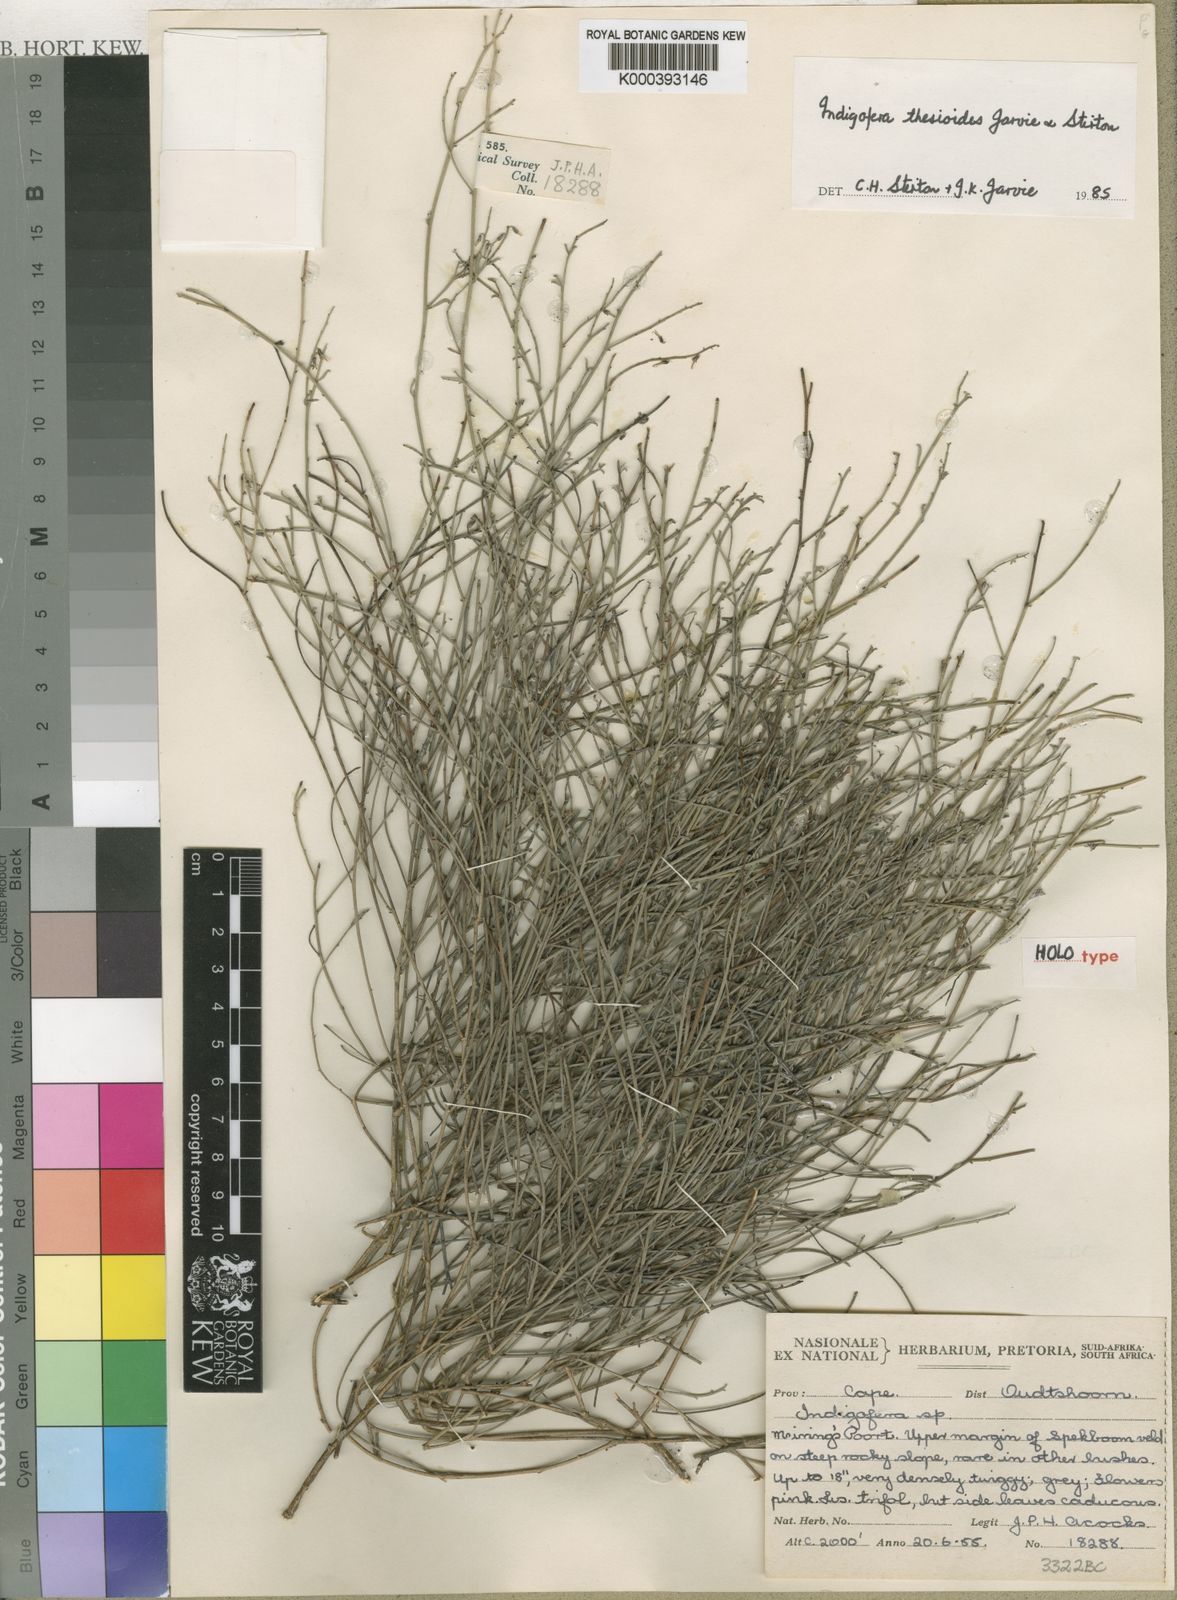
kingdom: Plantae
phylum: Tracheophyta
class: Magnoliopsida
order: Fabales
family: Fabaceae
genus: Indigofera
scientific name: Indigofera complicata
